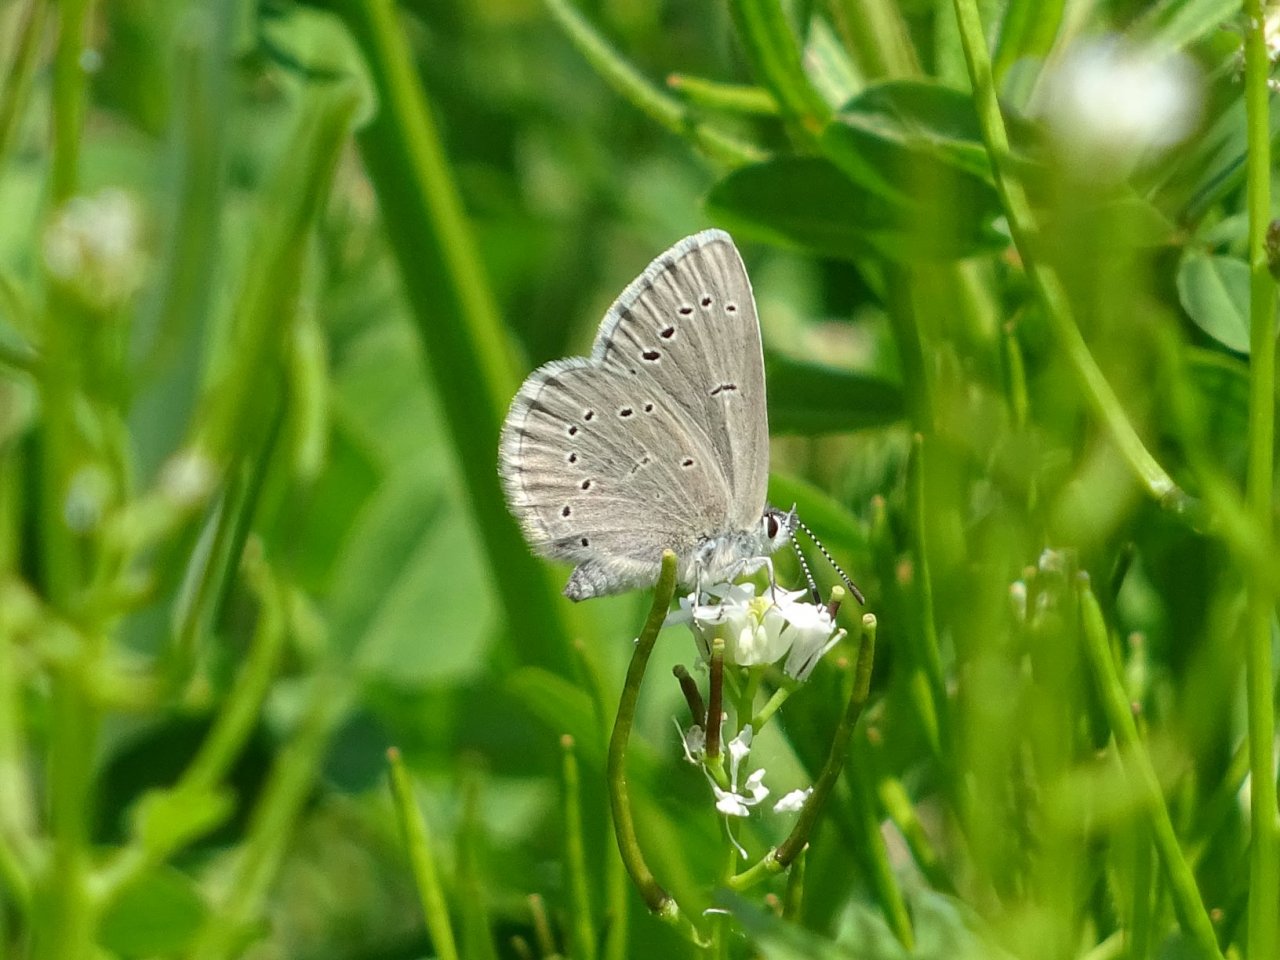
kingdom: Animalia
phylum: Arthropoda
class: Insecta
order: Lepidoptera
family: Lycaenidae
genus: Glaucopsyche
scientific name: Glaucopsyche lygdamus
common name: Silvery Blue
